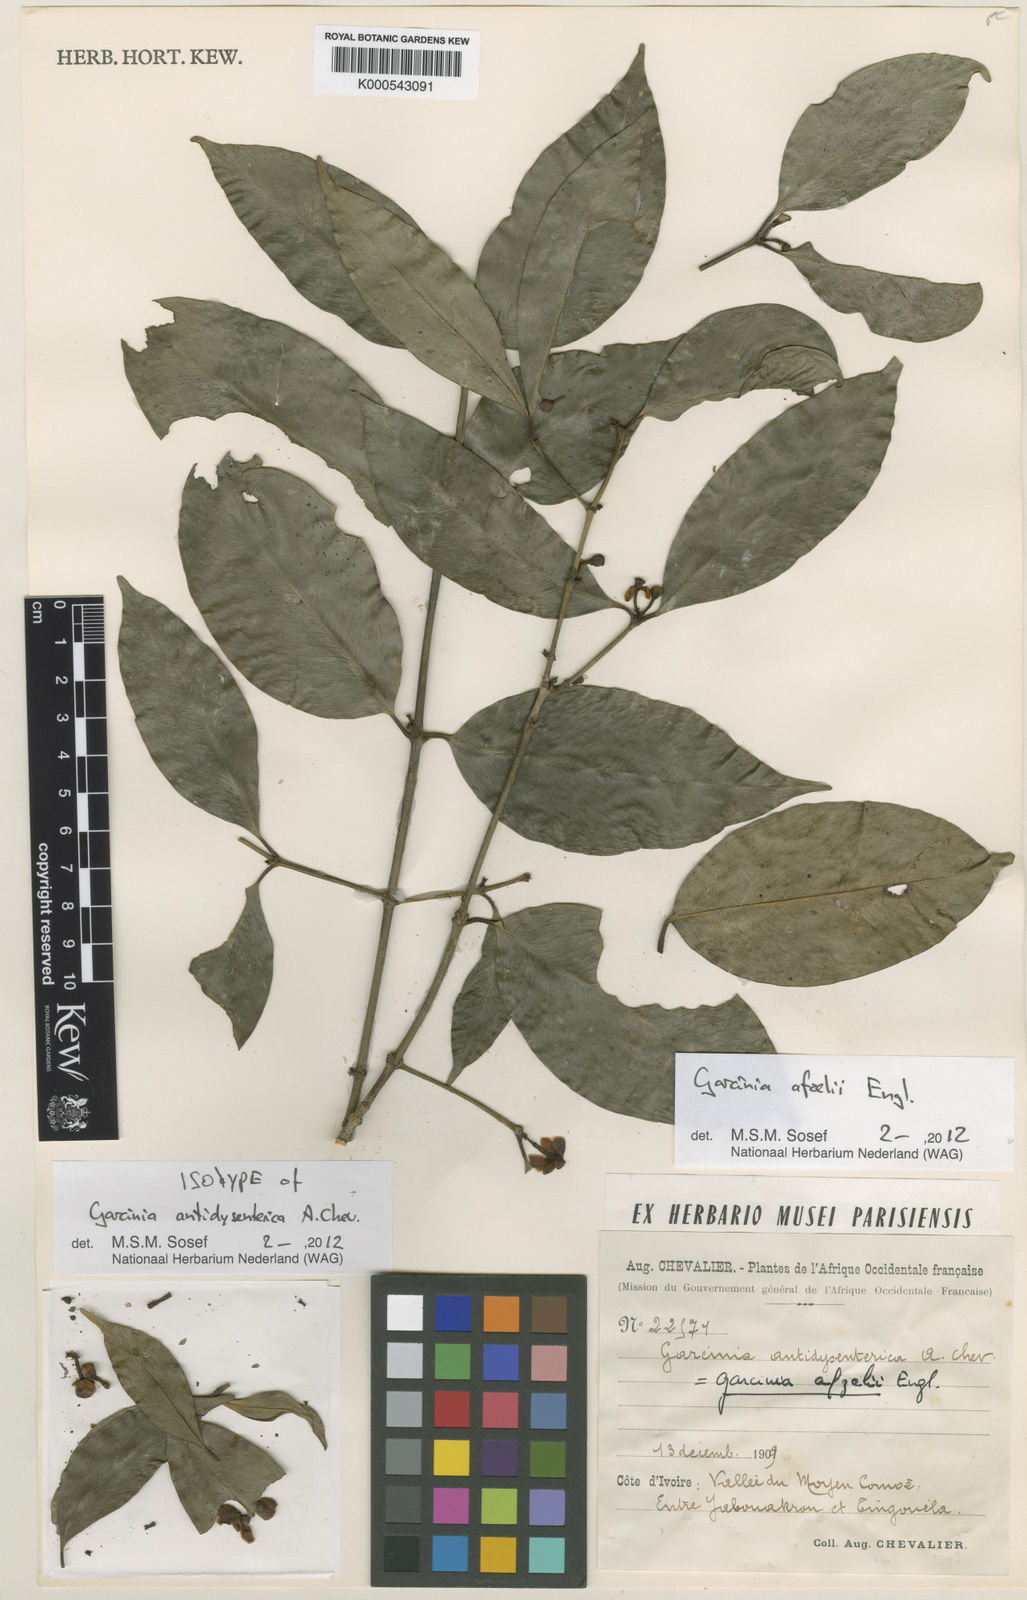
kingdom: Plantae
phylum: Tracheophyta
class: Magnoliopsida
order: Malpighiales
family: Clusiaceae
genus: Garcinia
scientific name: Garcinia afzelii
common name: Bitter-kola
